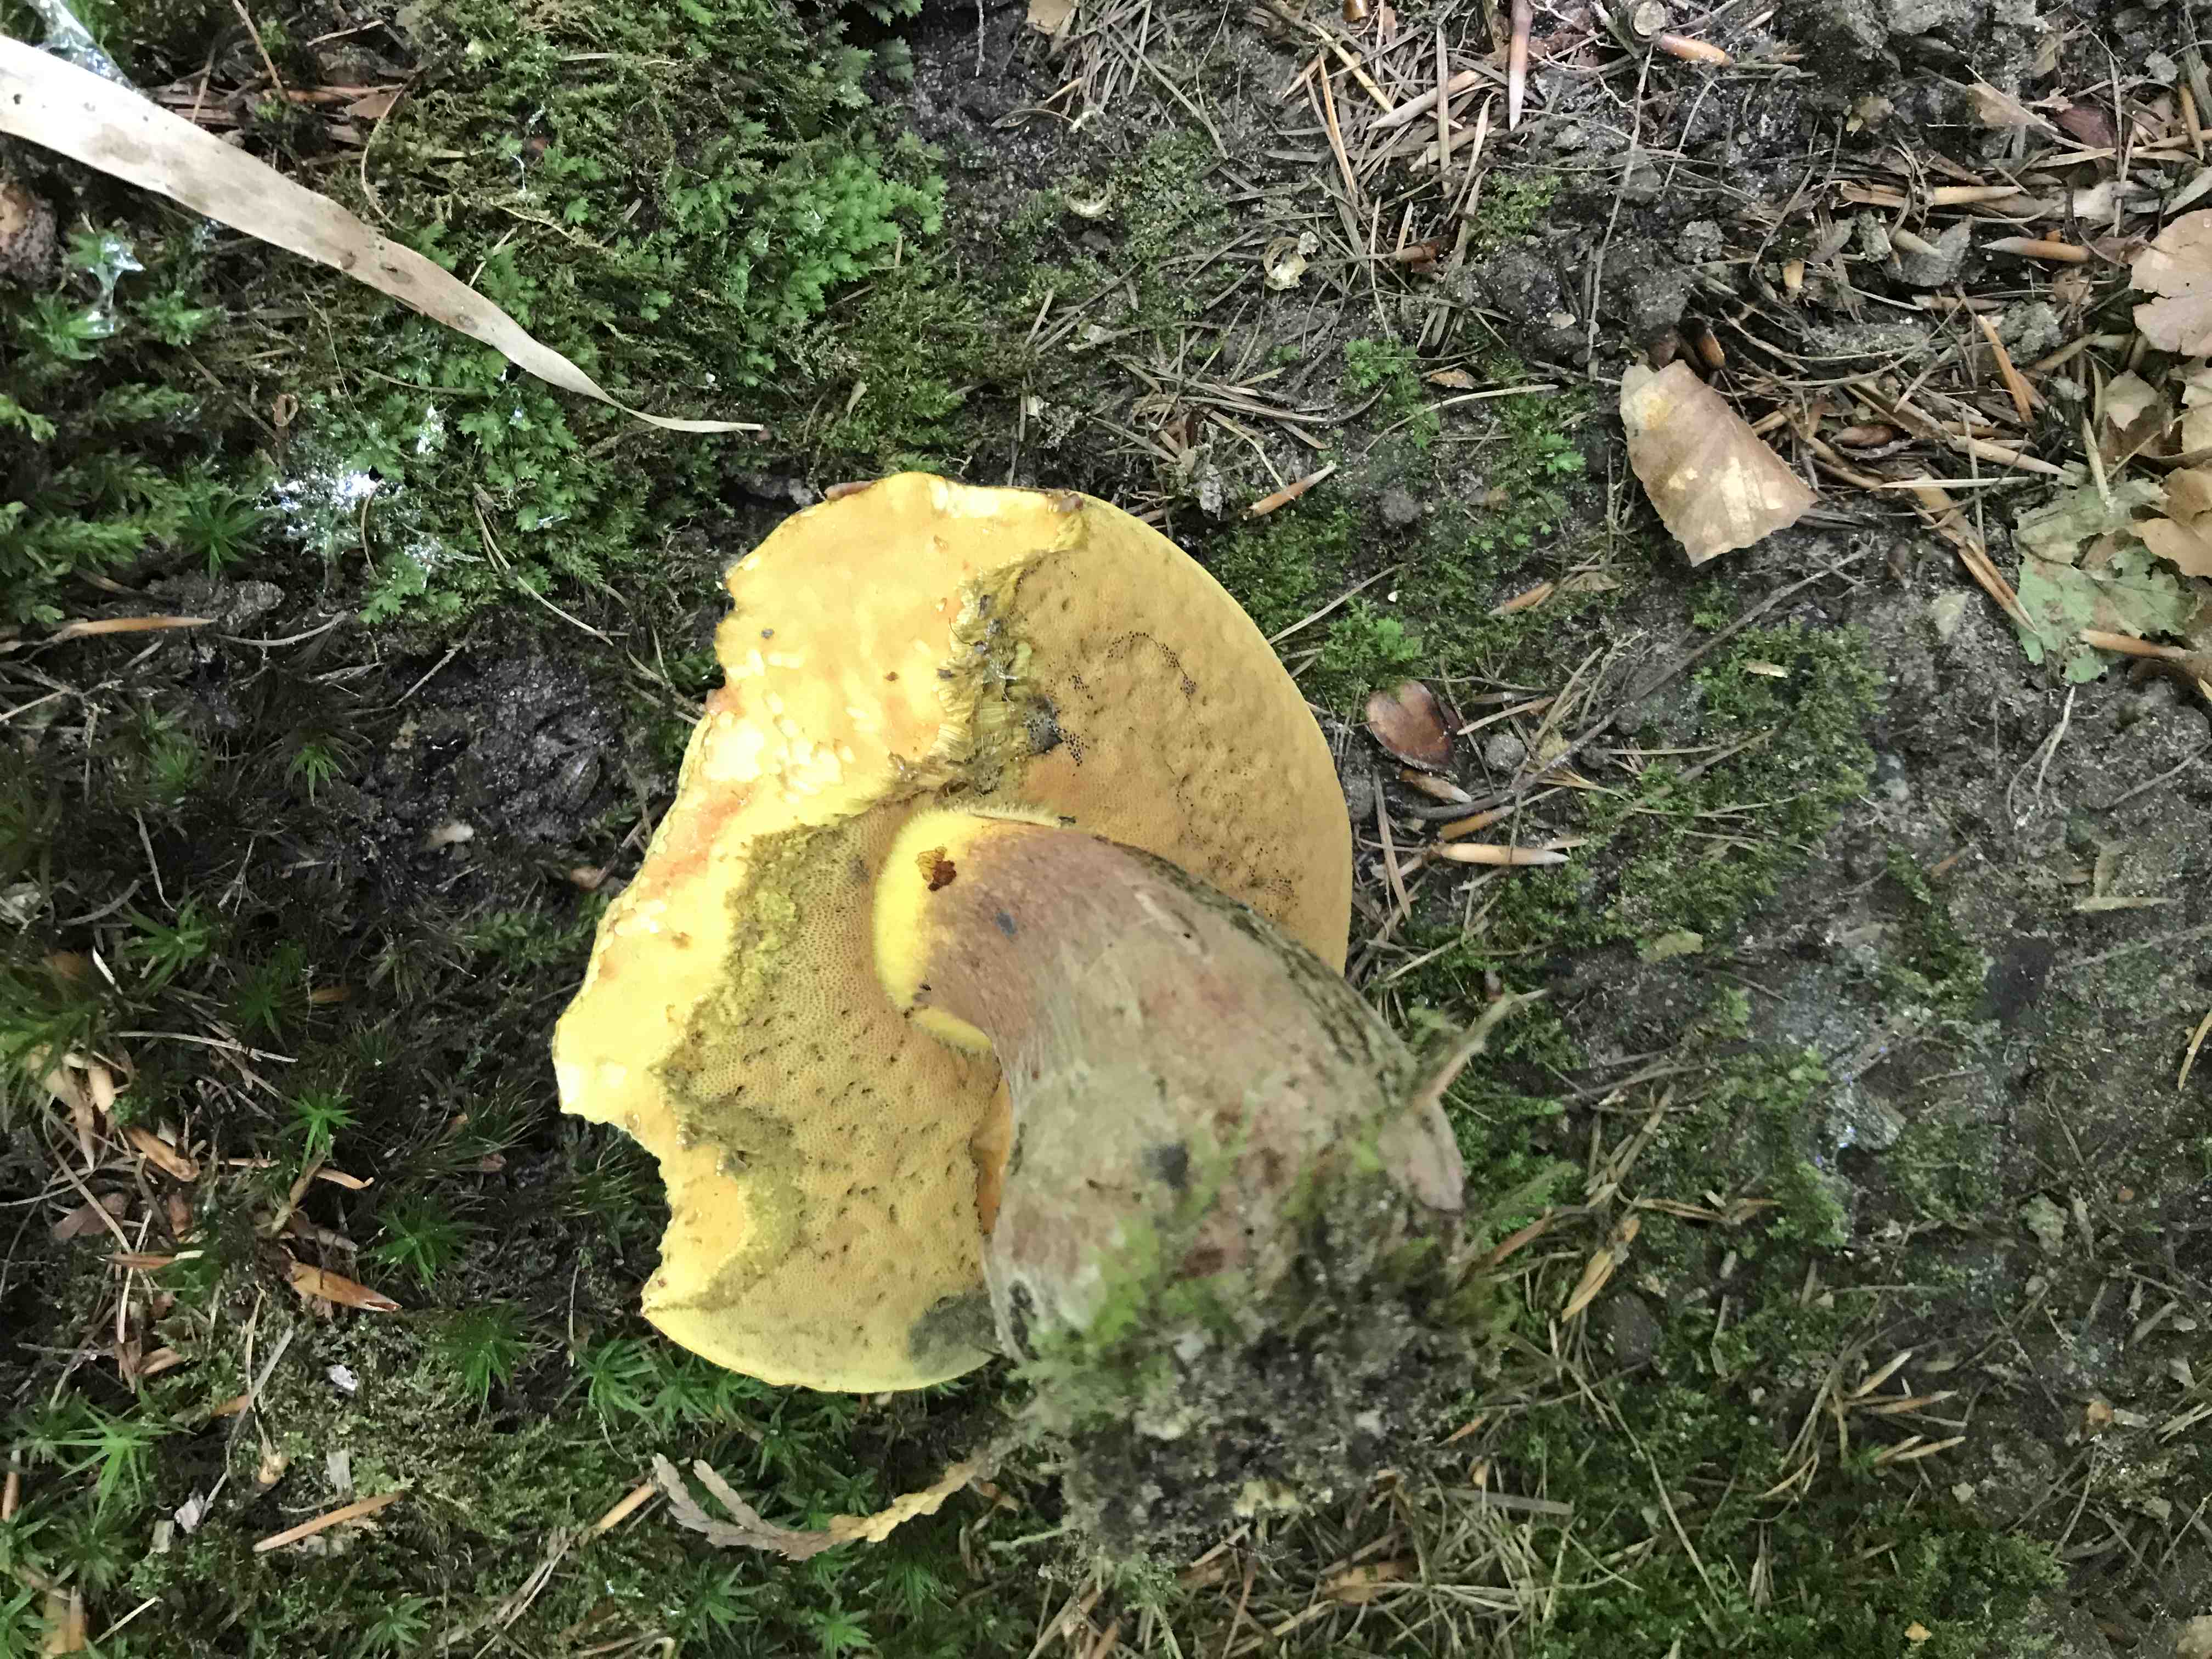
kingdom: Fungi
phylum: Basidiomycota
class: Agaricomycetes
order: Boletales
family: Boletaceae
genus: Suillellus
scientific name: Suillellus luridus
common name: netstokket indigorørhat
